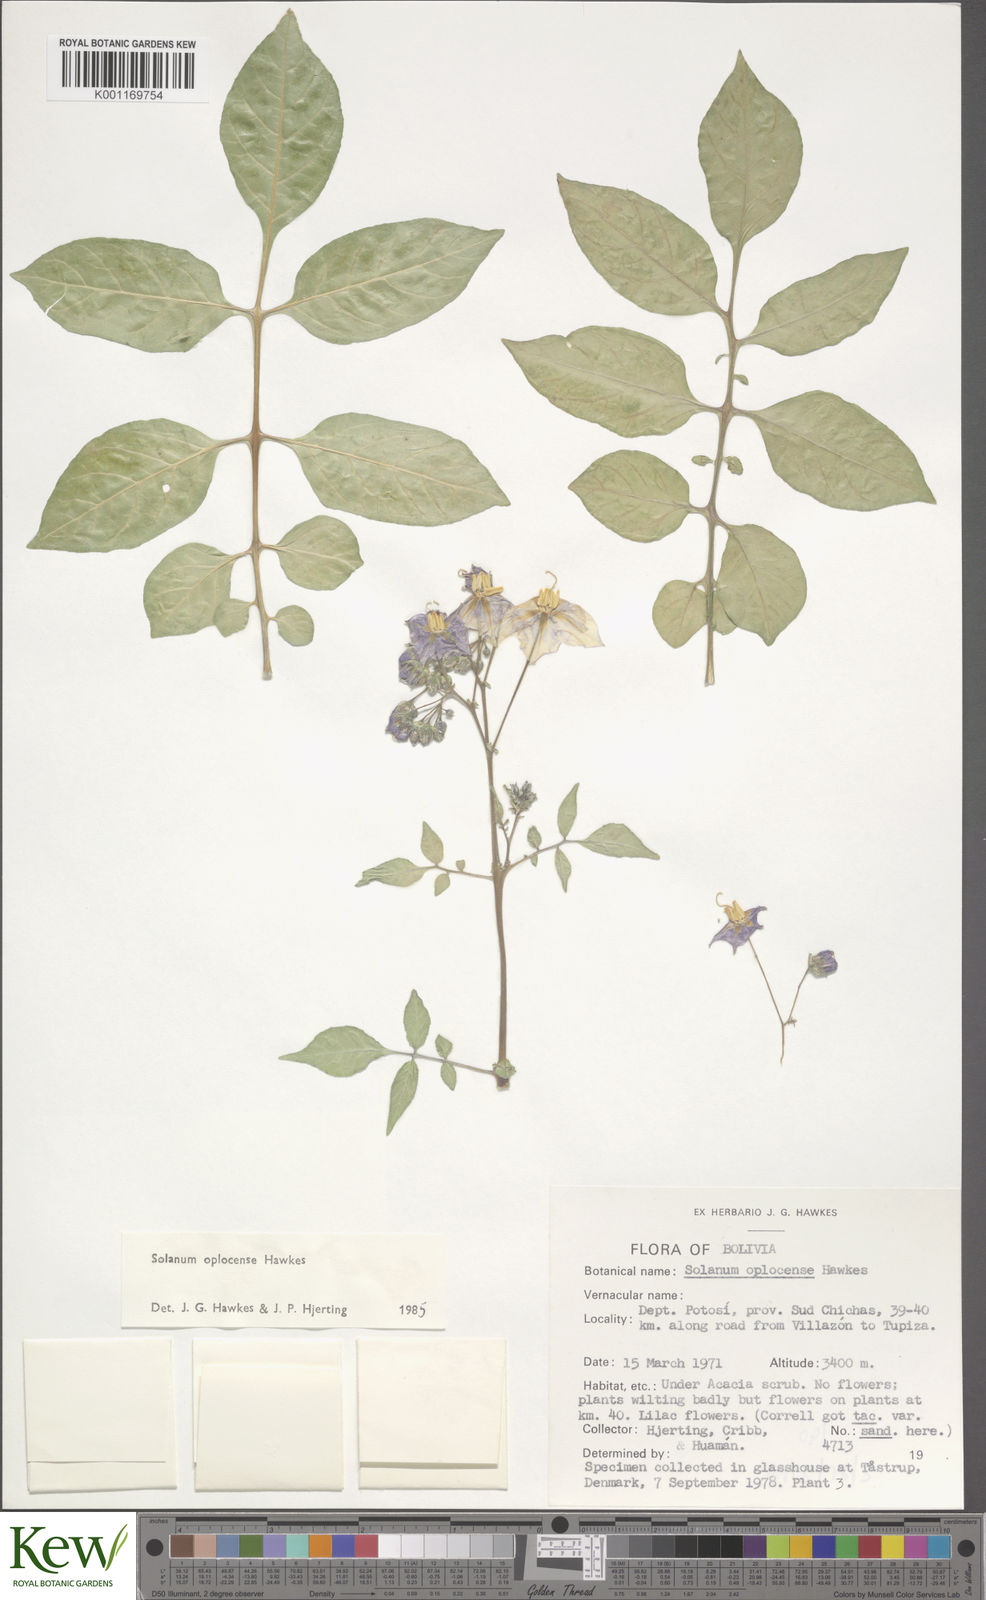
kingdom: Plantae
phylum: Tracheophyta
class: Magnoliopsida
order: Solanales
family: Solanaceae
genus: Solanum
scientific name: Solanum brevicaule
